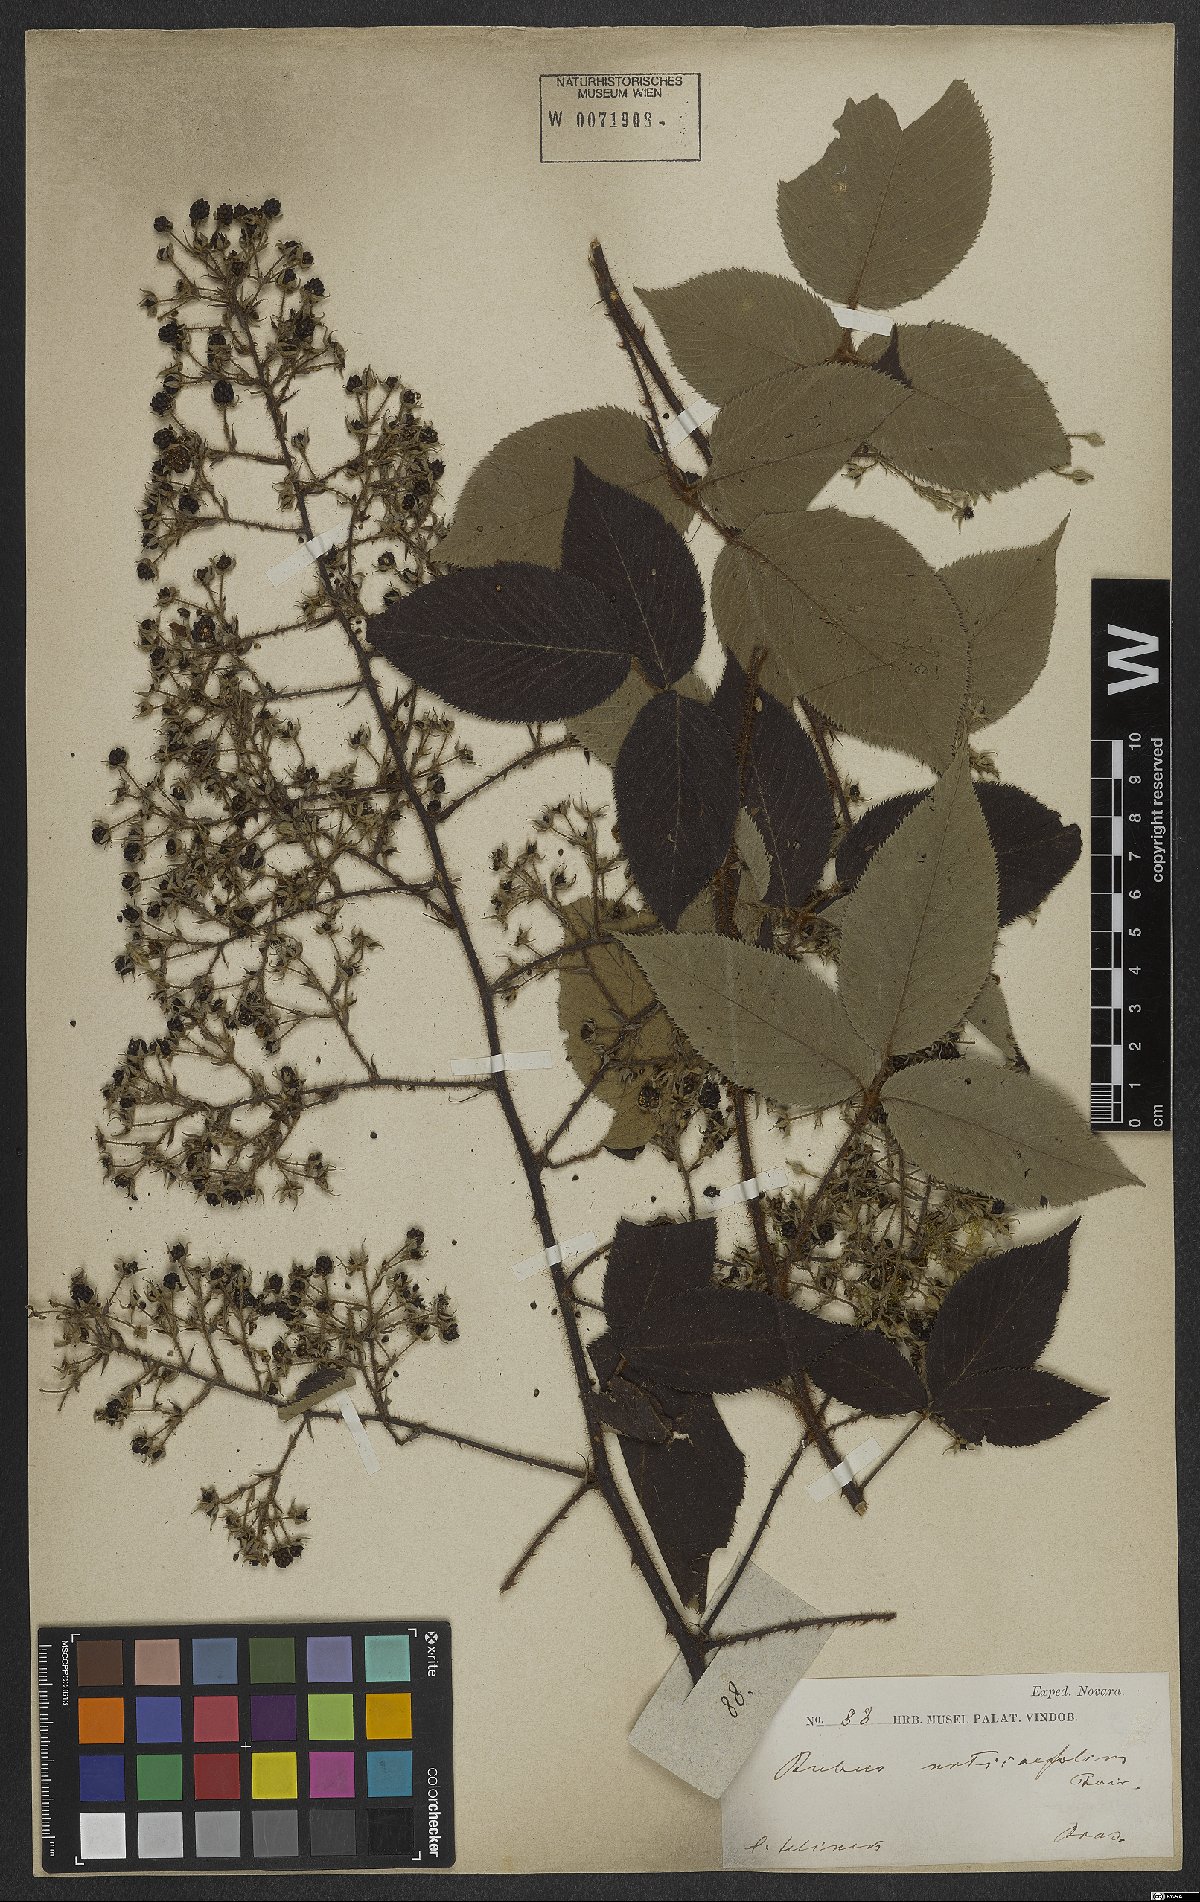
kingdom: Plantae
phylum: Tracheophyta
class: Magnoliopsida
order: Rosales
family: Rosaceae
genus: Rubus
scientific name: Rubus urticifolius
